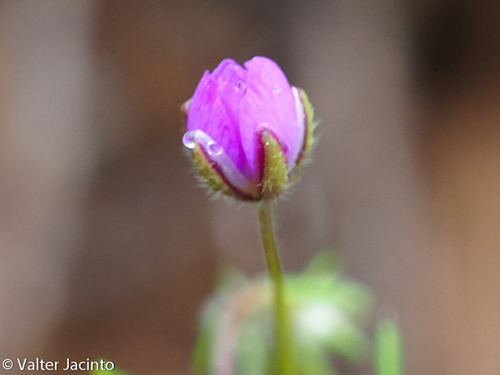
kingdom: Plantae
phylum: Tracheophyta
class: Magnoliopsida
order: Caryophyllales
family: Caryophyllaceae
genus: Spergularia
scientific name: Spergularia rubra
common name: Red sand-spurrey
